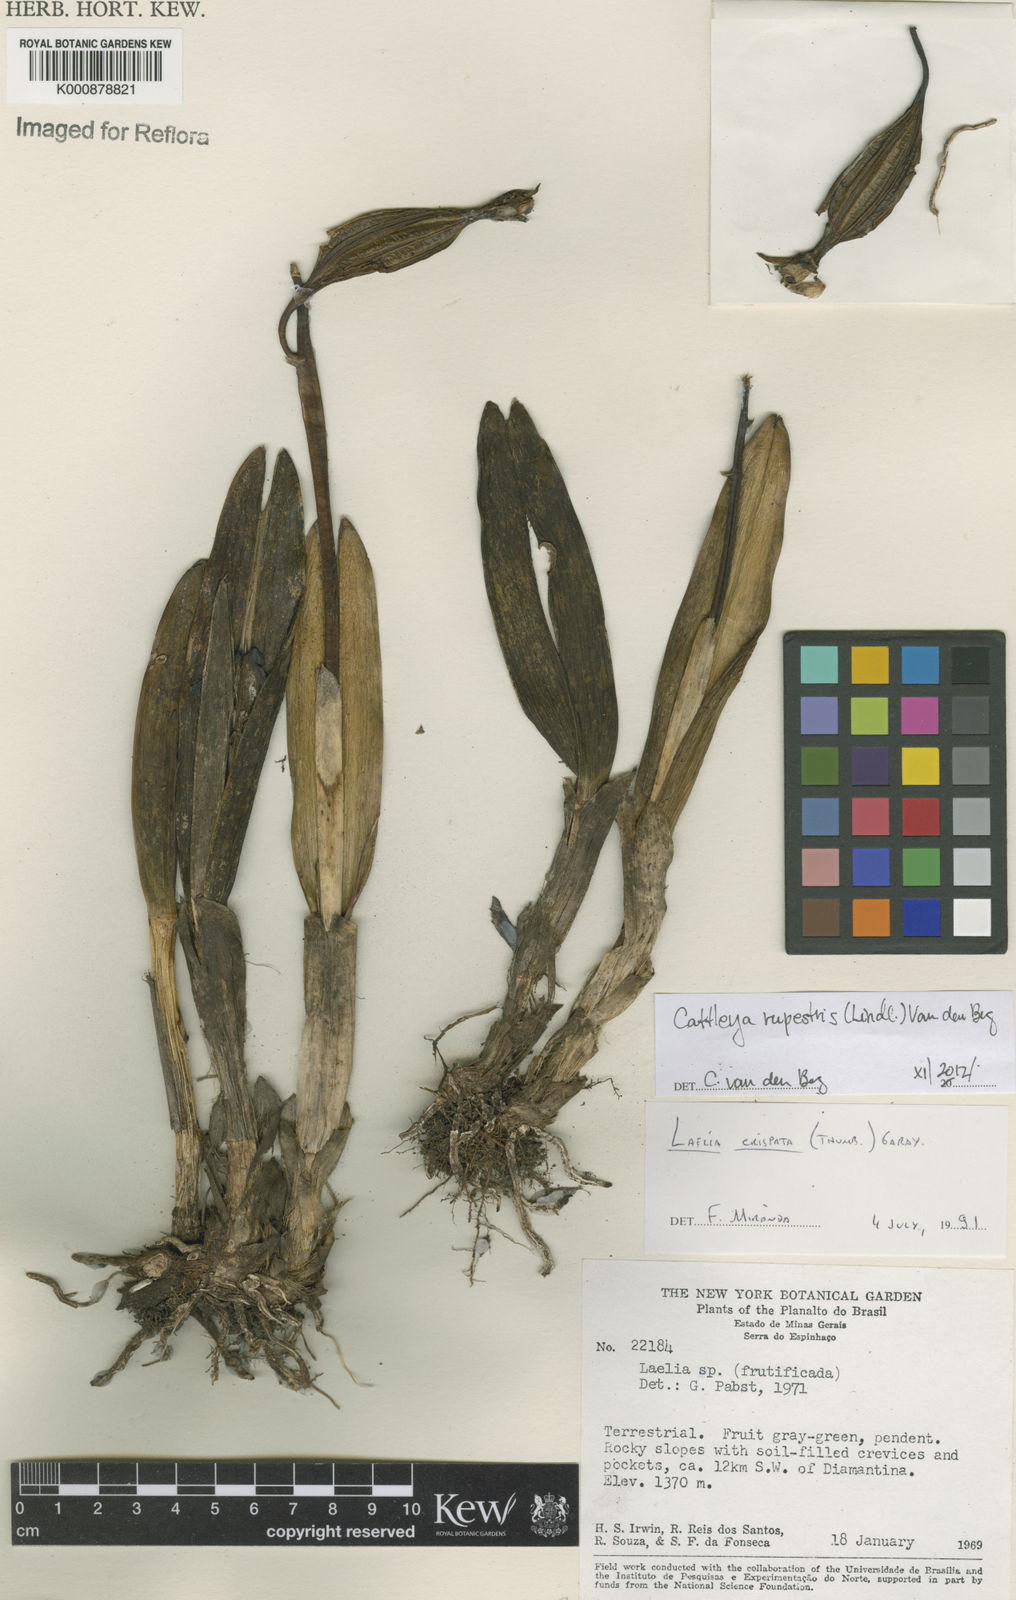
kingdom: Plantae
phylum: Tracheophyta
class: Liliopsida
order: Asparagales
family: Orchidaceae
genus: Cattleya
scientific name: Cattleya rupestris
